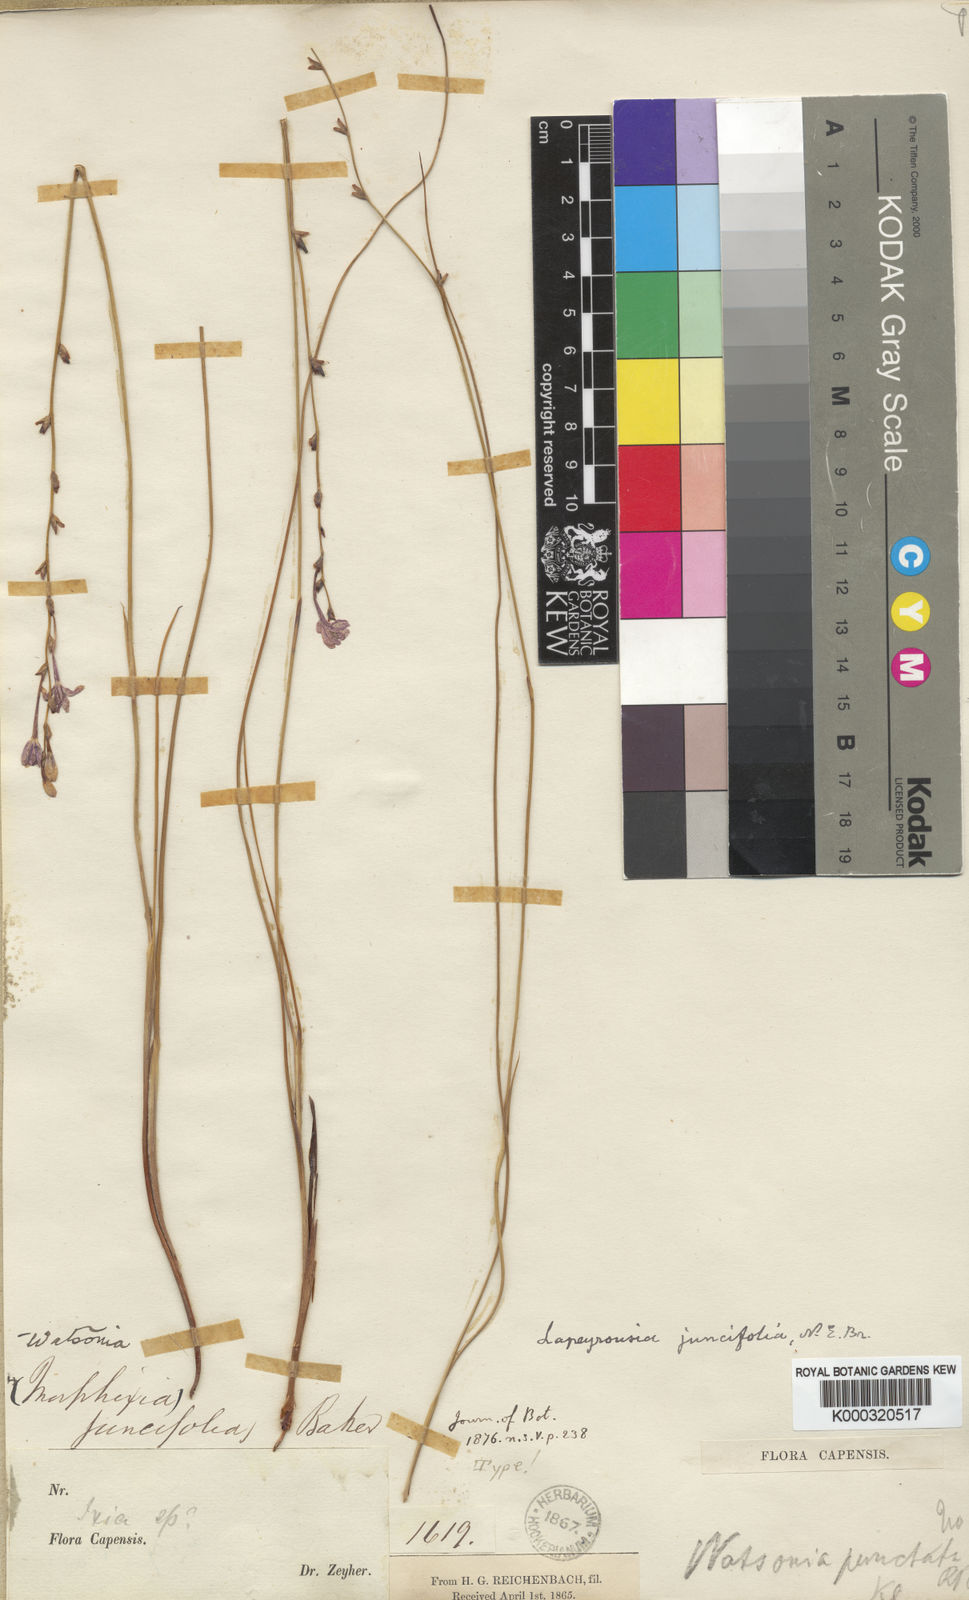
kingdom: Plantae
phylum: Tracheophyta
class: Liliopsida
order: Asparagales
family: Iridaceae
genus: Thereianthus
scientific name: Thereianthus juncifolius
